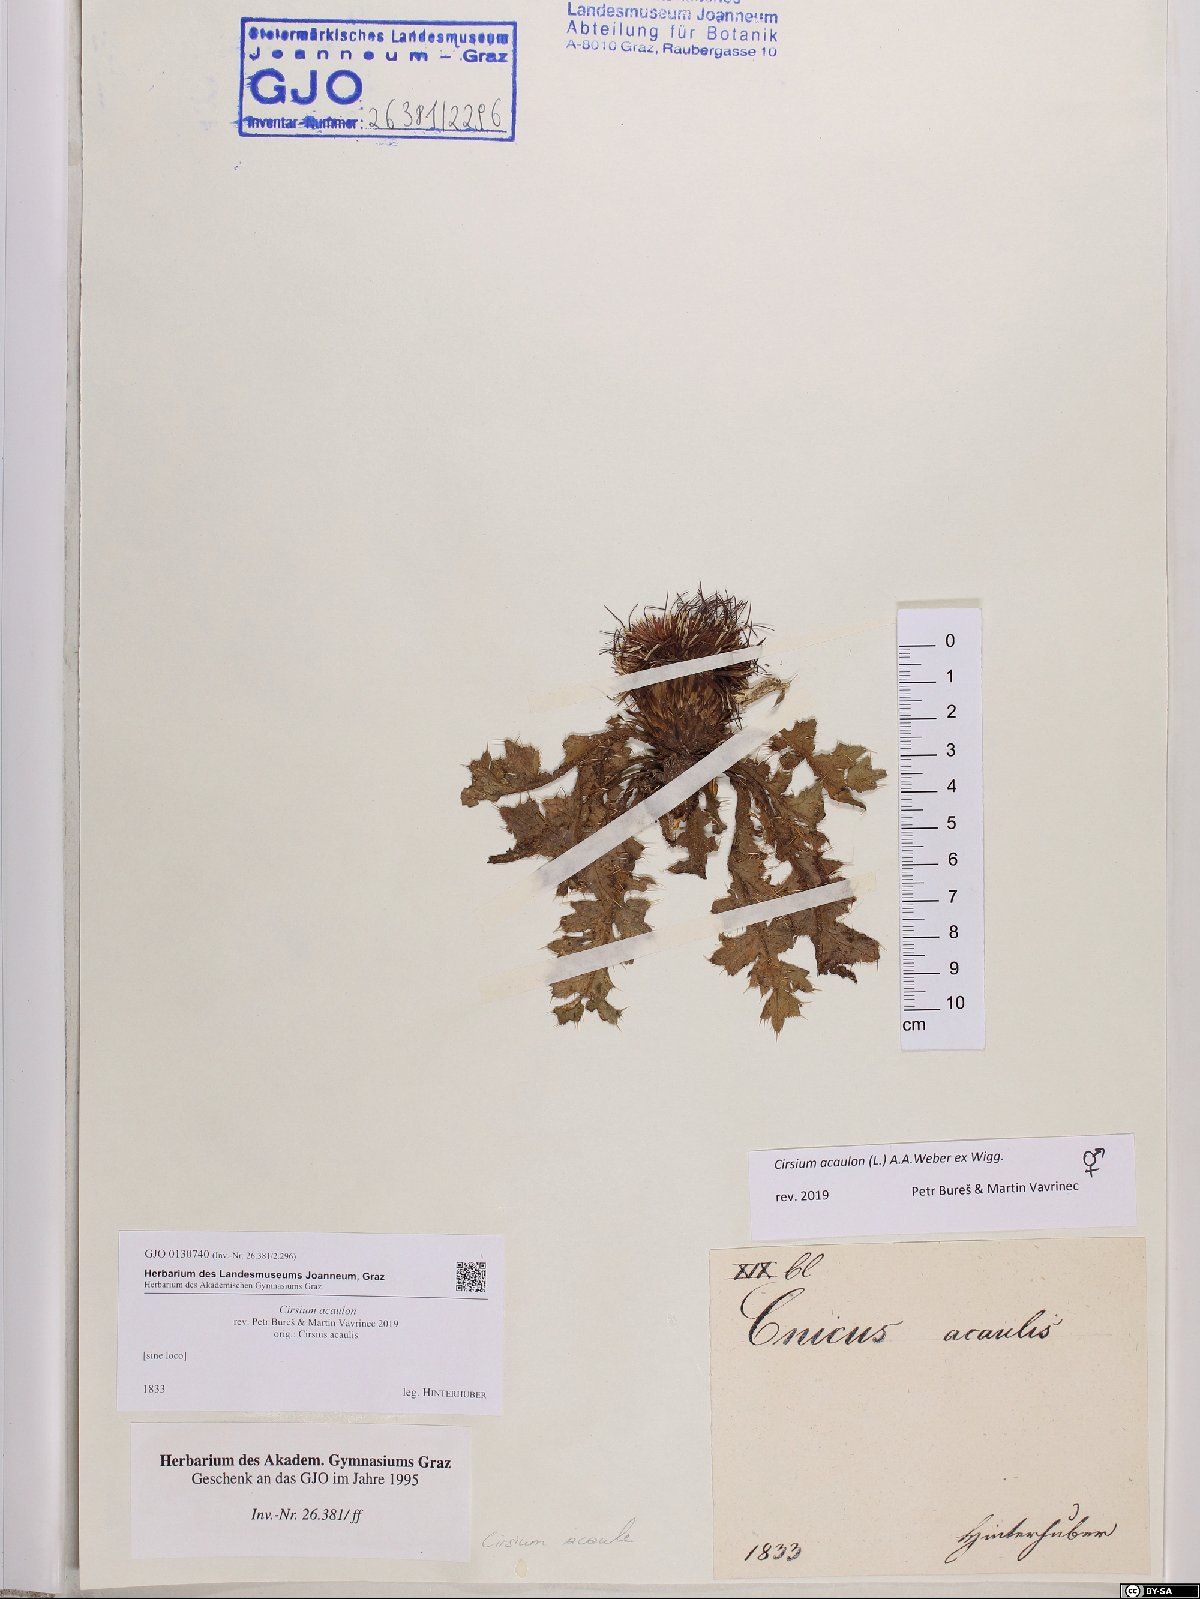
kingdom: Plantae
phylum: Tracheophyta
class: Magnoliopsida
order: Asterales
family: Asteraceae
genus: Cirsium
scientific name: Cirsium acaulon
